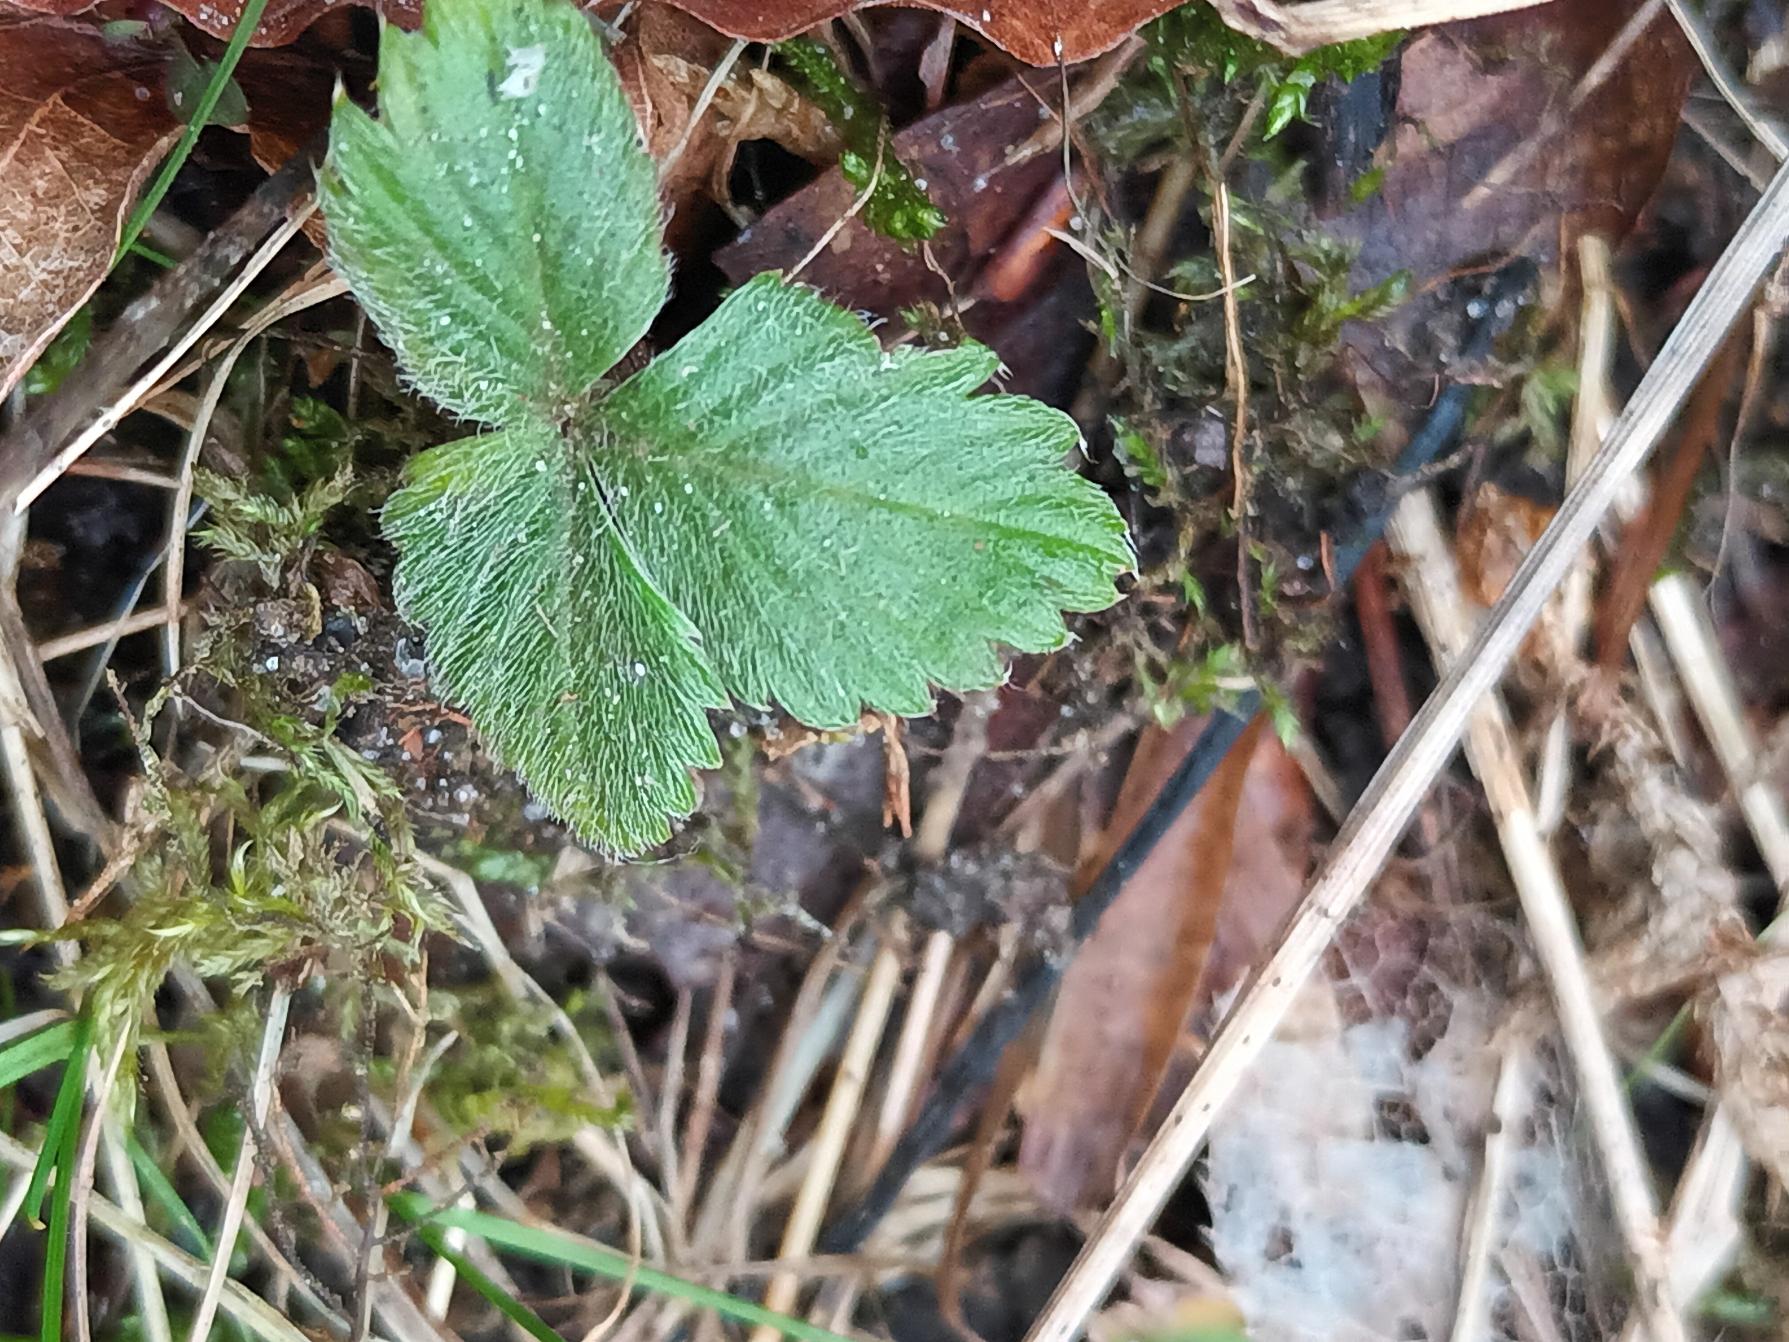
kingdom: Plantae
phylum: Tracheophyta
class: Magnoliopsida
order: Rosales
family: Rosaceae
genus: Fragaria
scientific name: Fragaria
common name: Jordbærslægten
